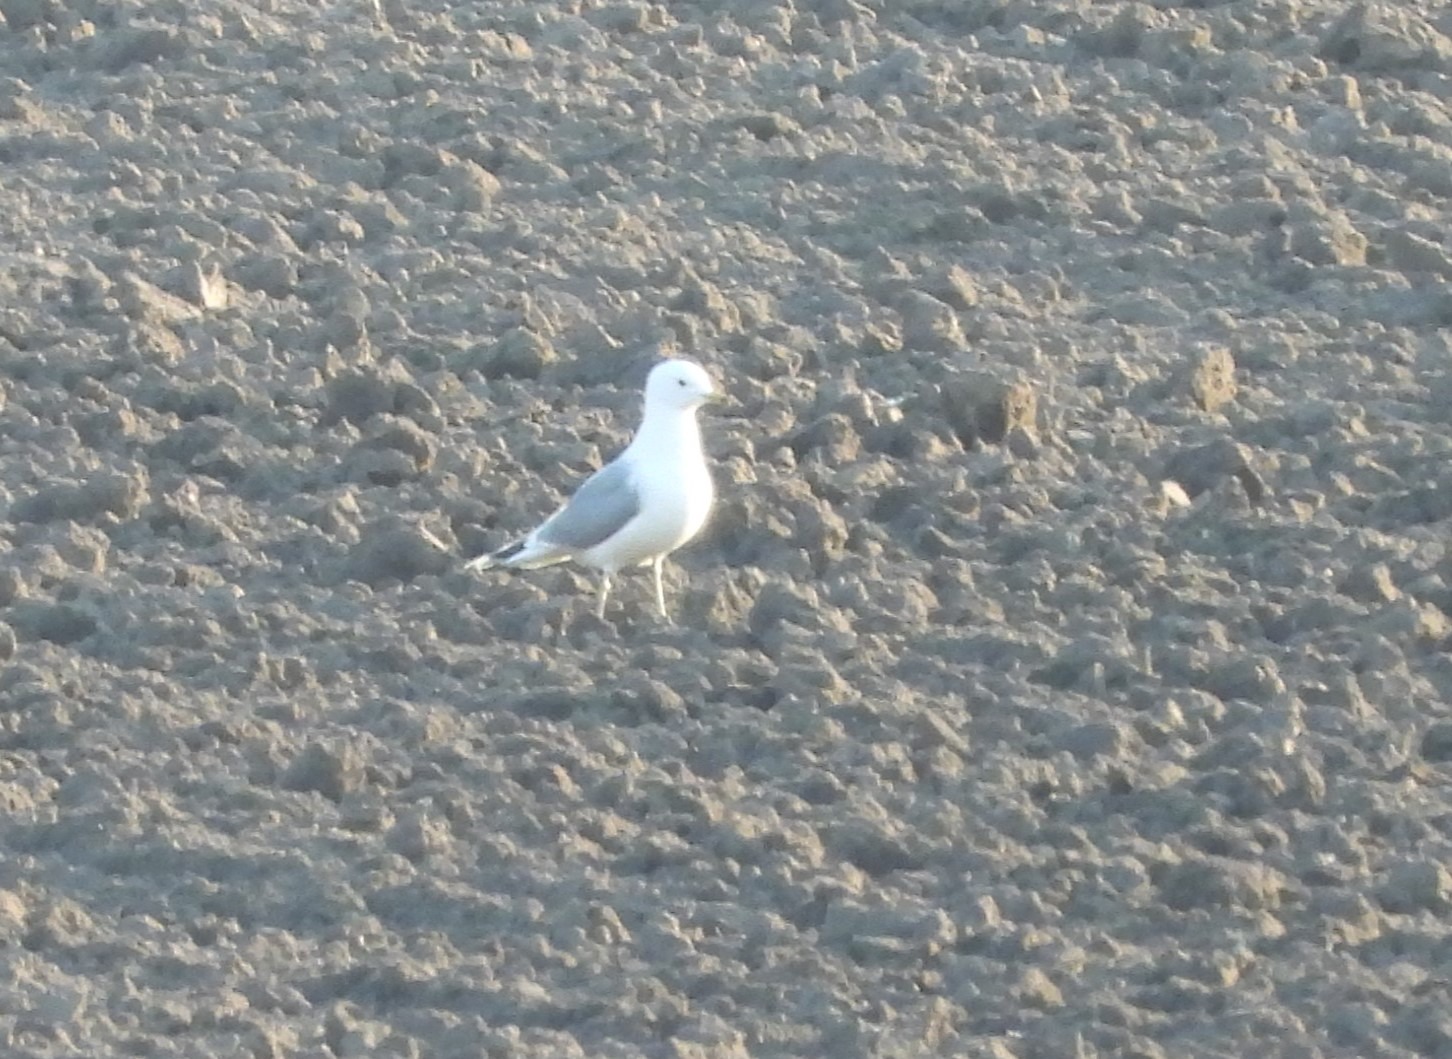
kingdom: Animalia
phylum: Chordata
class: Aves
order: Charadriiformes
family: Laridae
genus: Larus
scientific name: Larus canus
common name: Stormmåge
